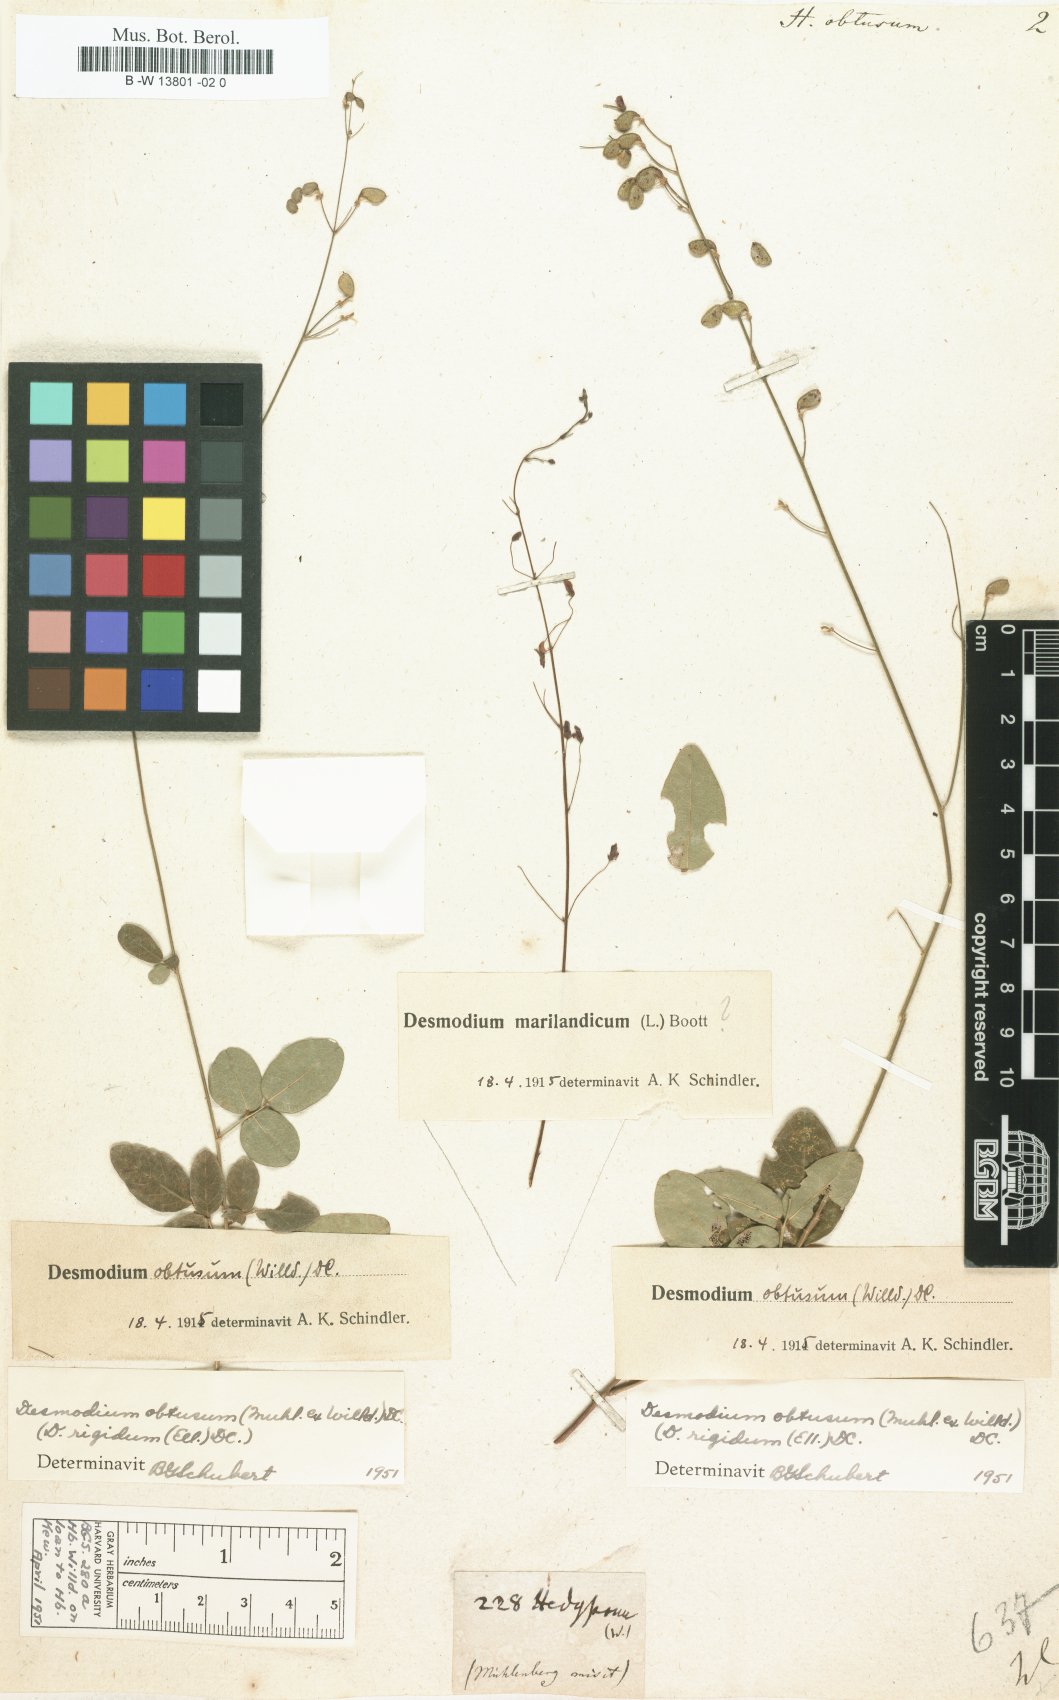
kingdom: Plantae
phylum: Tracheophyta
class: Magnoliopsida
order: Fabales
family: Fabaceae
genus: Desmodium
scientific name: Desmodium marilandicum
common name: Maryland tick-trefoil
